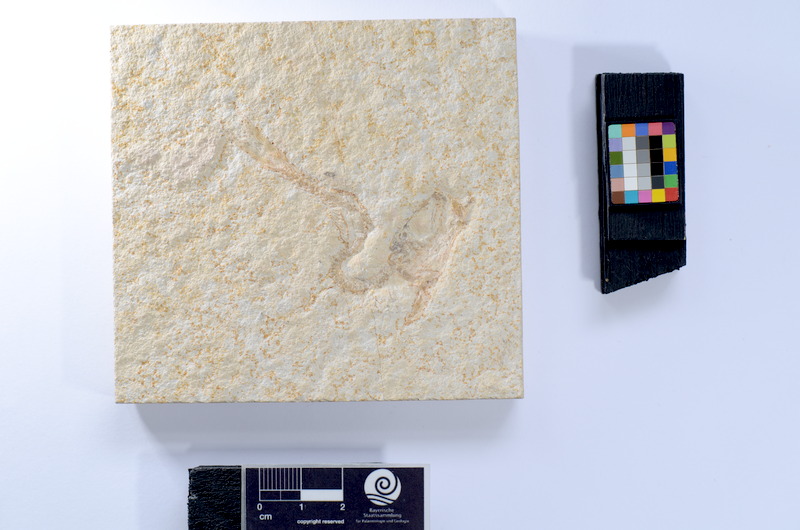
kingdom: Animalia
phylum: Chordata
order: Elopiformes
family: Anaethalionidae
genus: Anaethalion
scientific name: Anaethalion knorri
